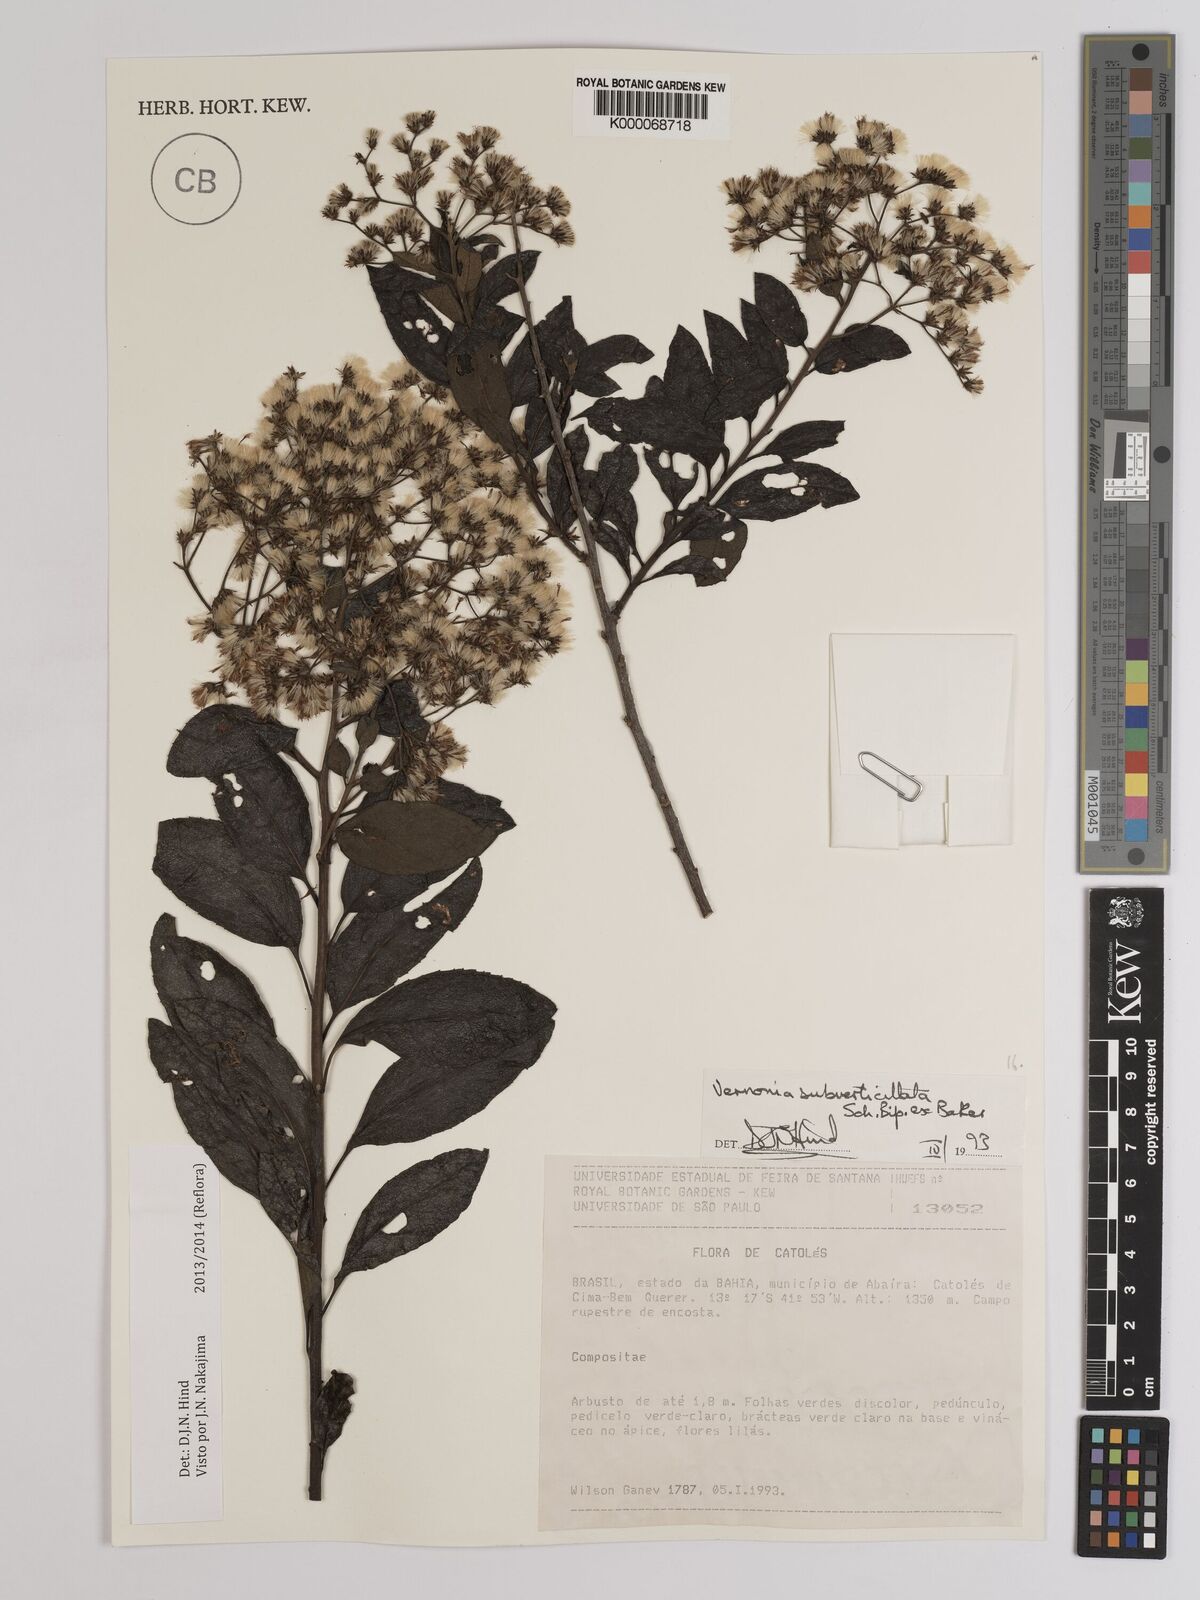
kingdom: Plantae
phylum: Tracheophyta
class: Magnoliopsida
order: Asterales
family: Asteraceae
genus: Vernonia
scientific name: Vernonia
